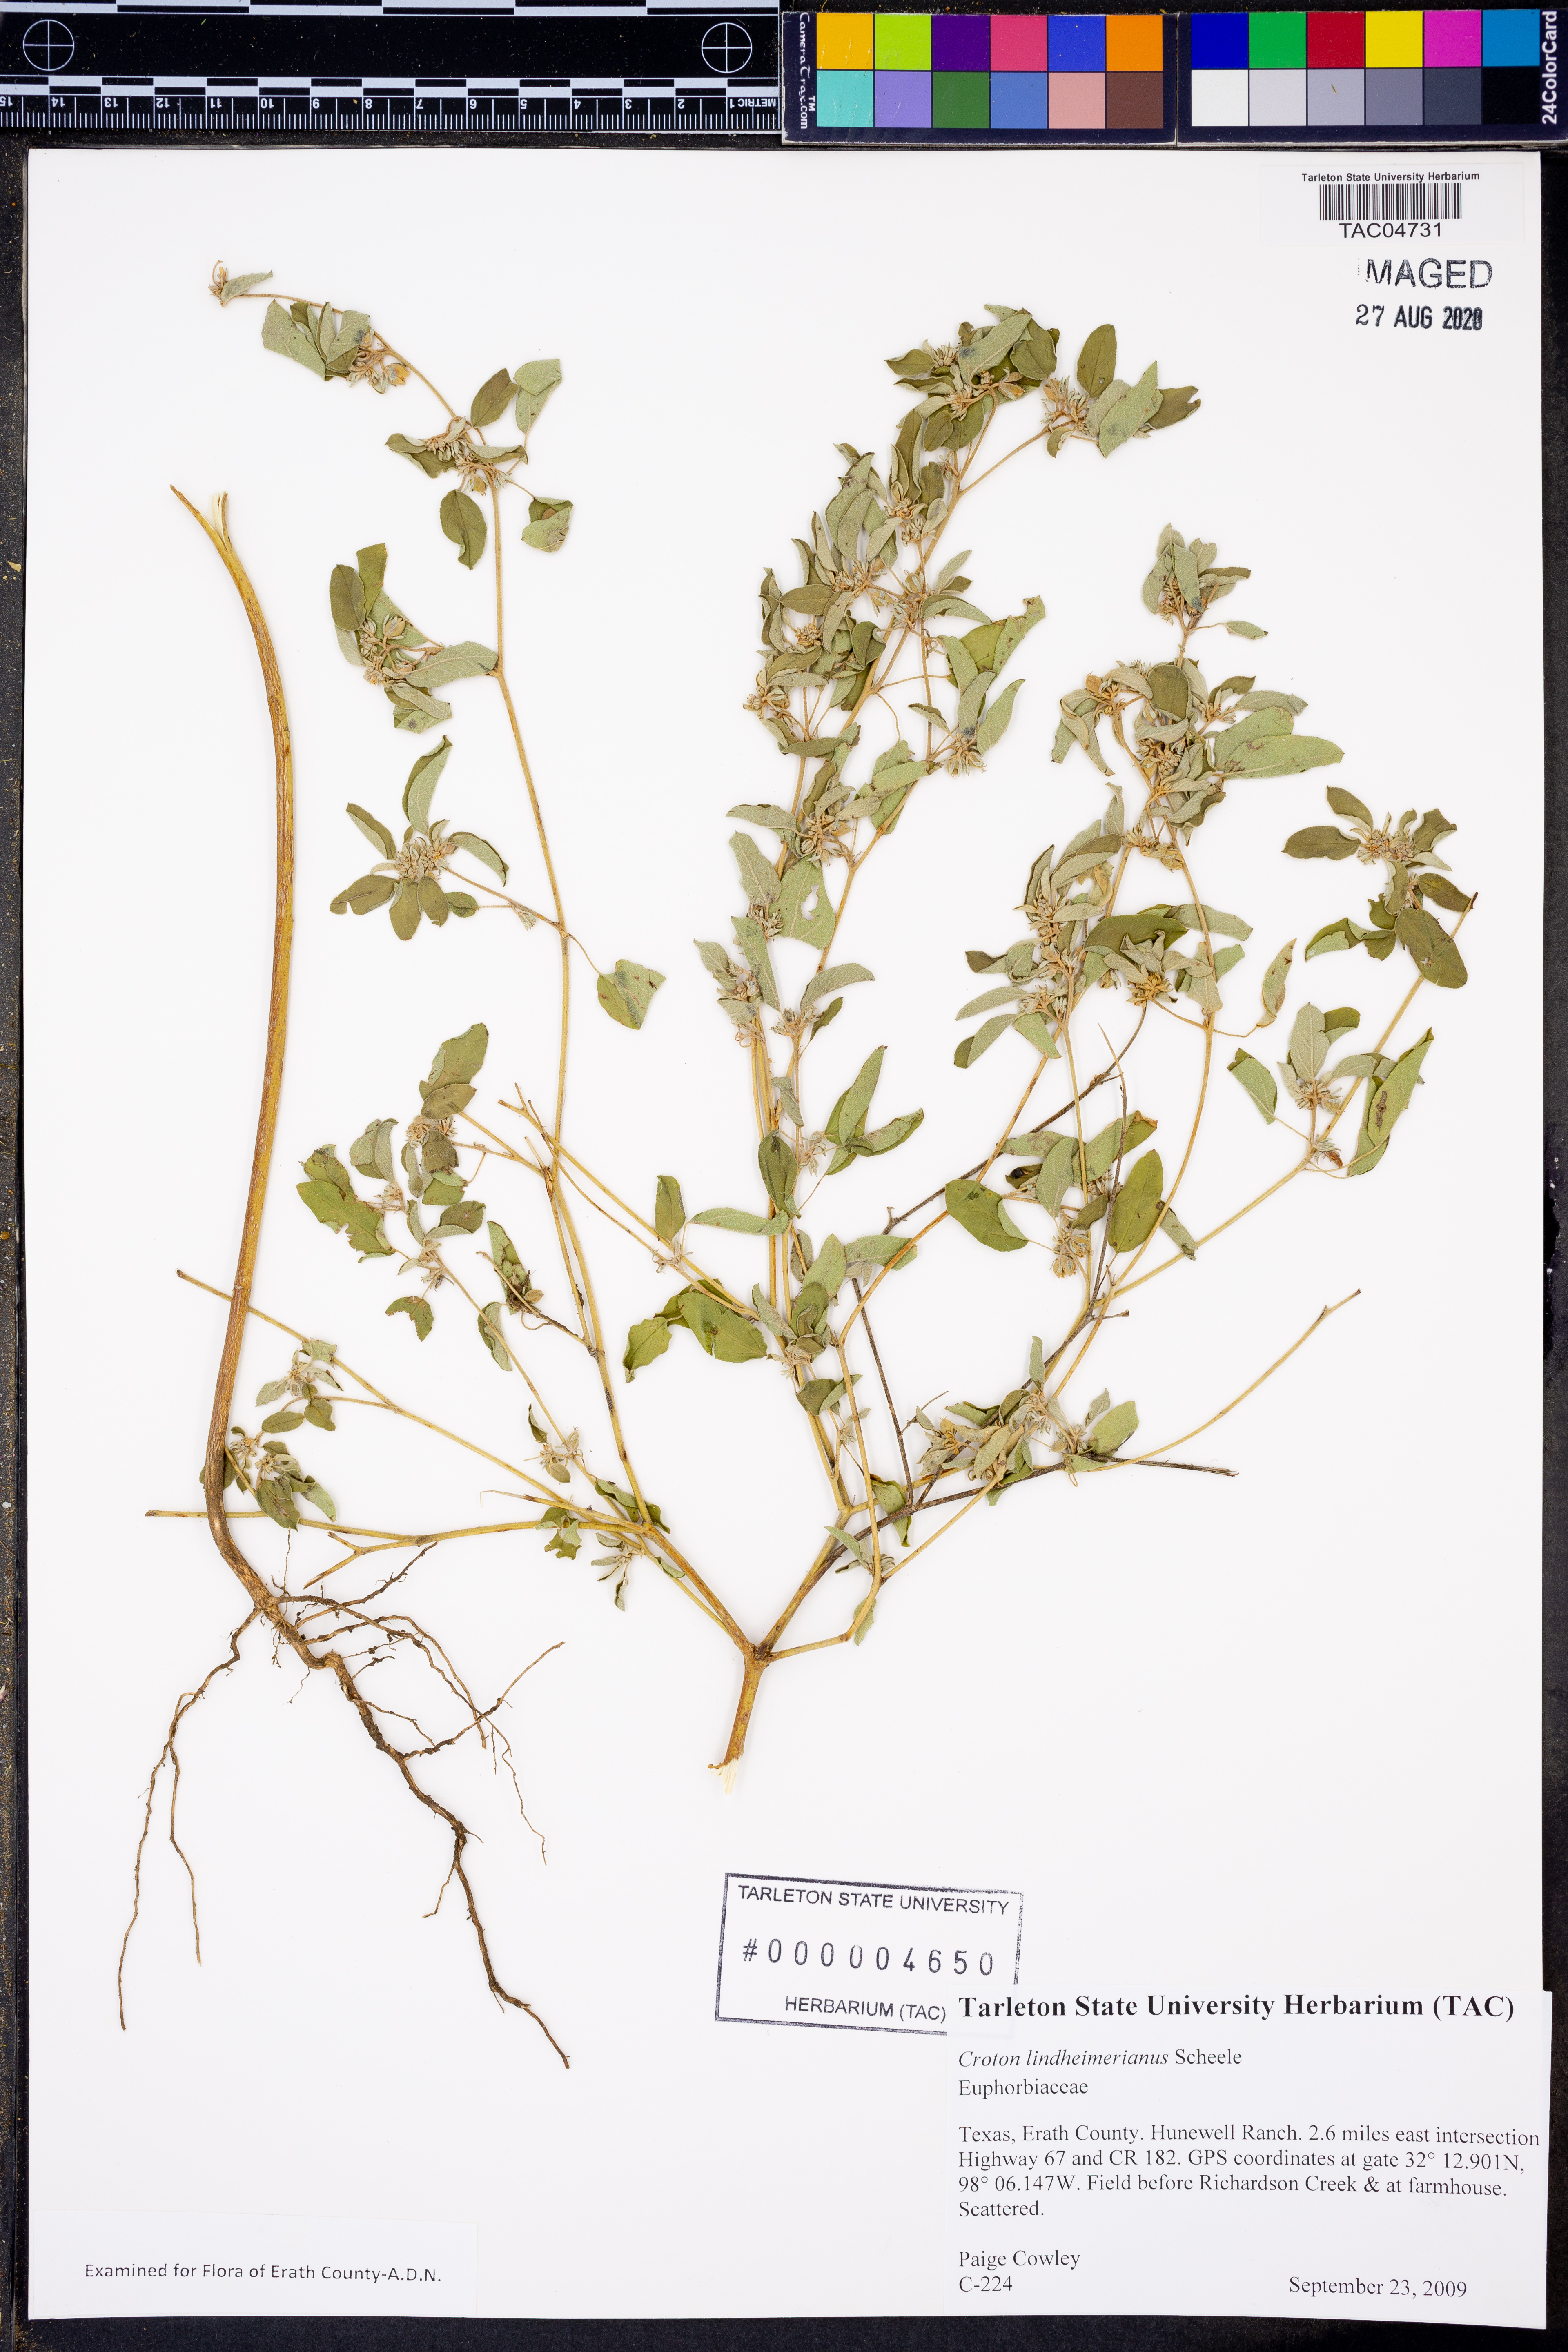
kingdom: Plantae
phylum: Tracheophyta
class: Magnoliopsida
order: Malpighiales
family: Euphorbiaceae
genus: Croton
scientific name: Croton lindheimerianus
